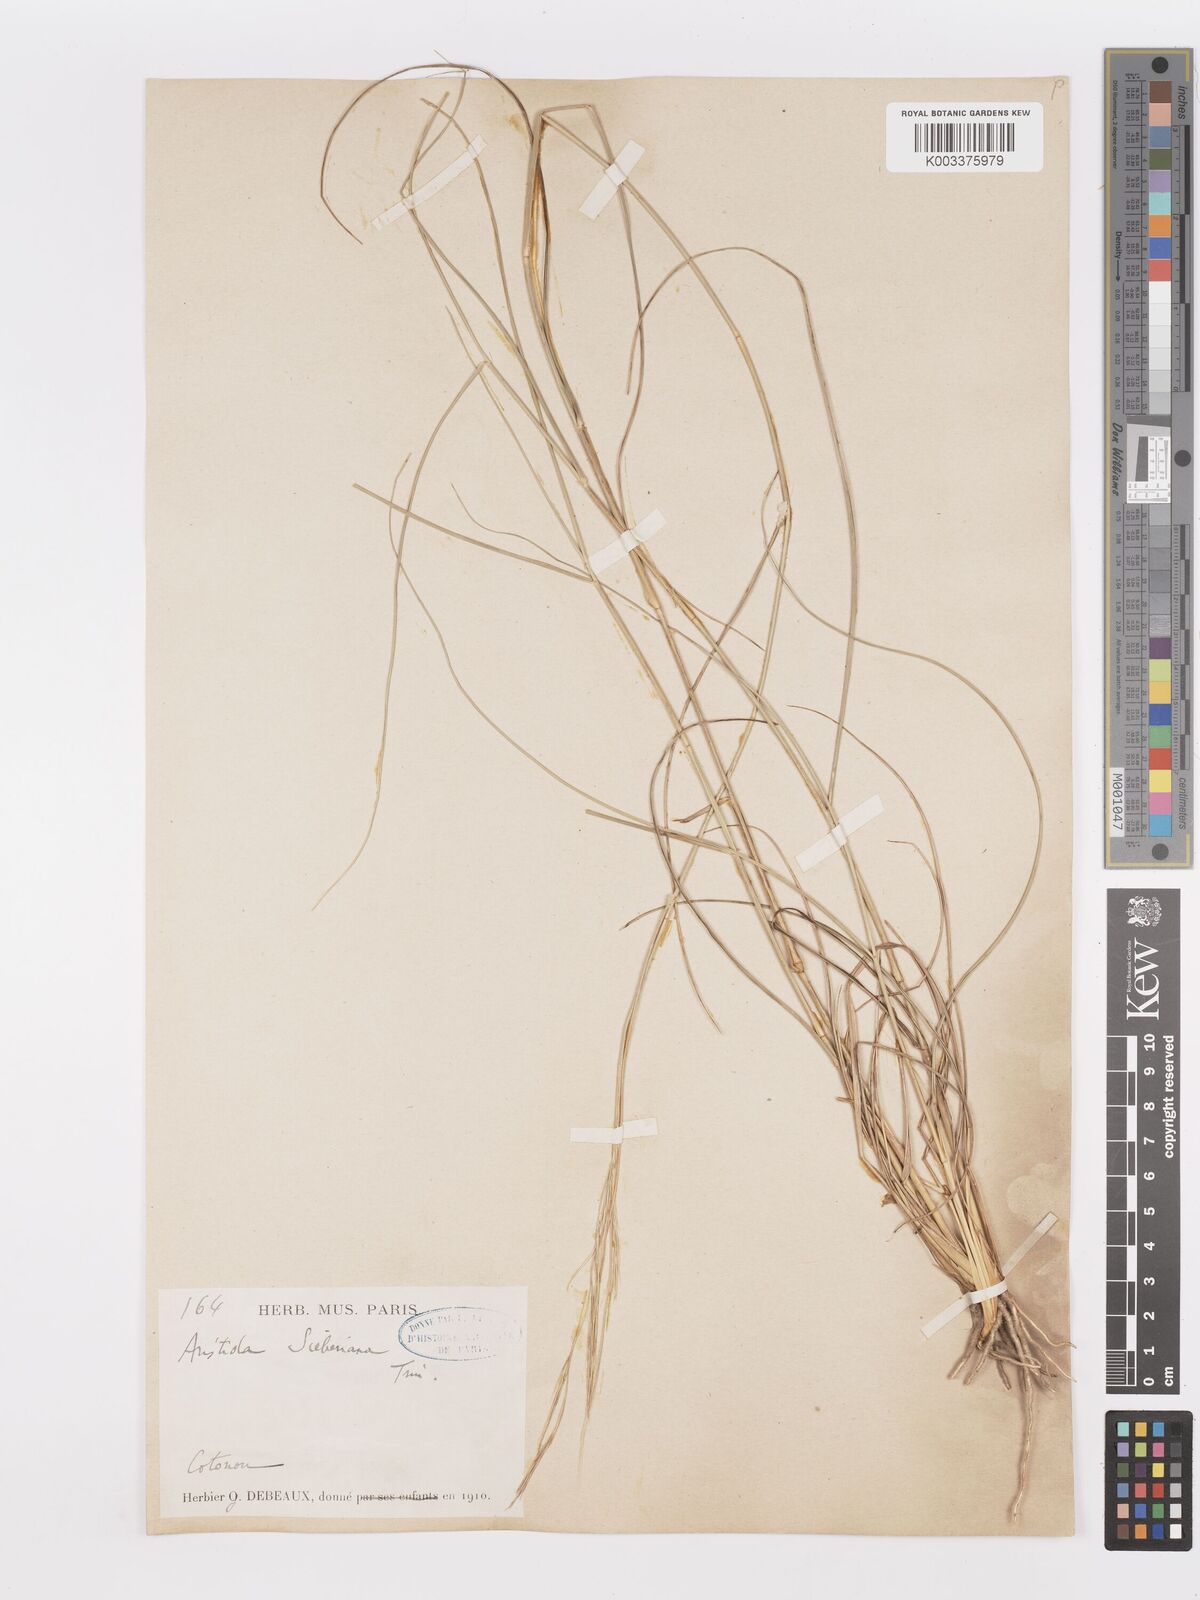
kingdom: Plantae
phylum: Tracheophyta
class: Liliopsida
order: Poales
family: Poaceae
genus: Aristida
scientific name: Aristida sieberiana
